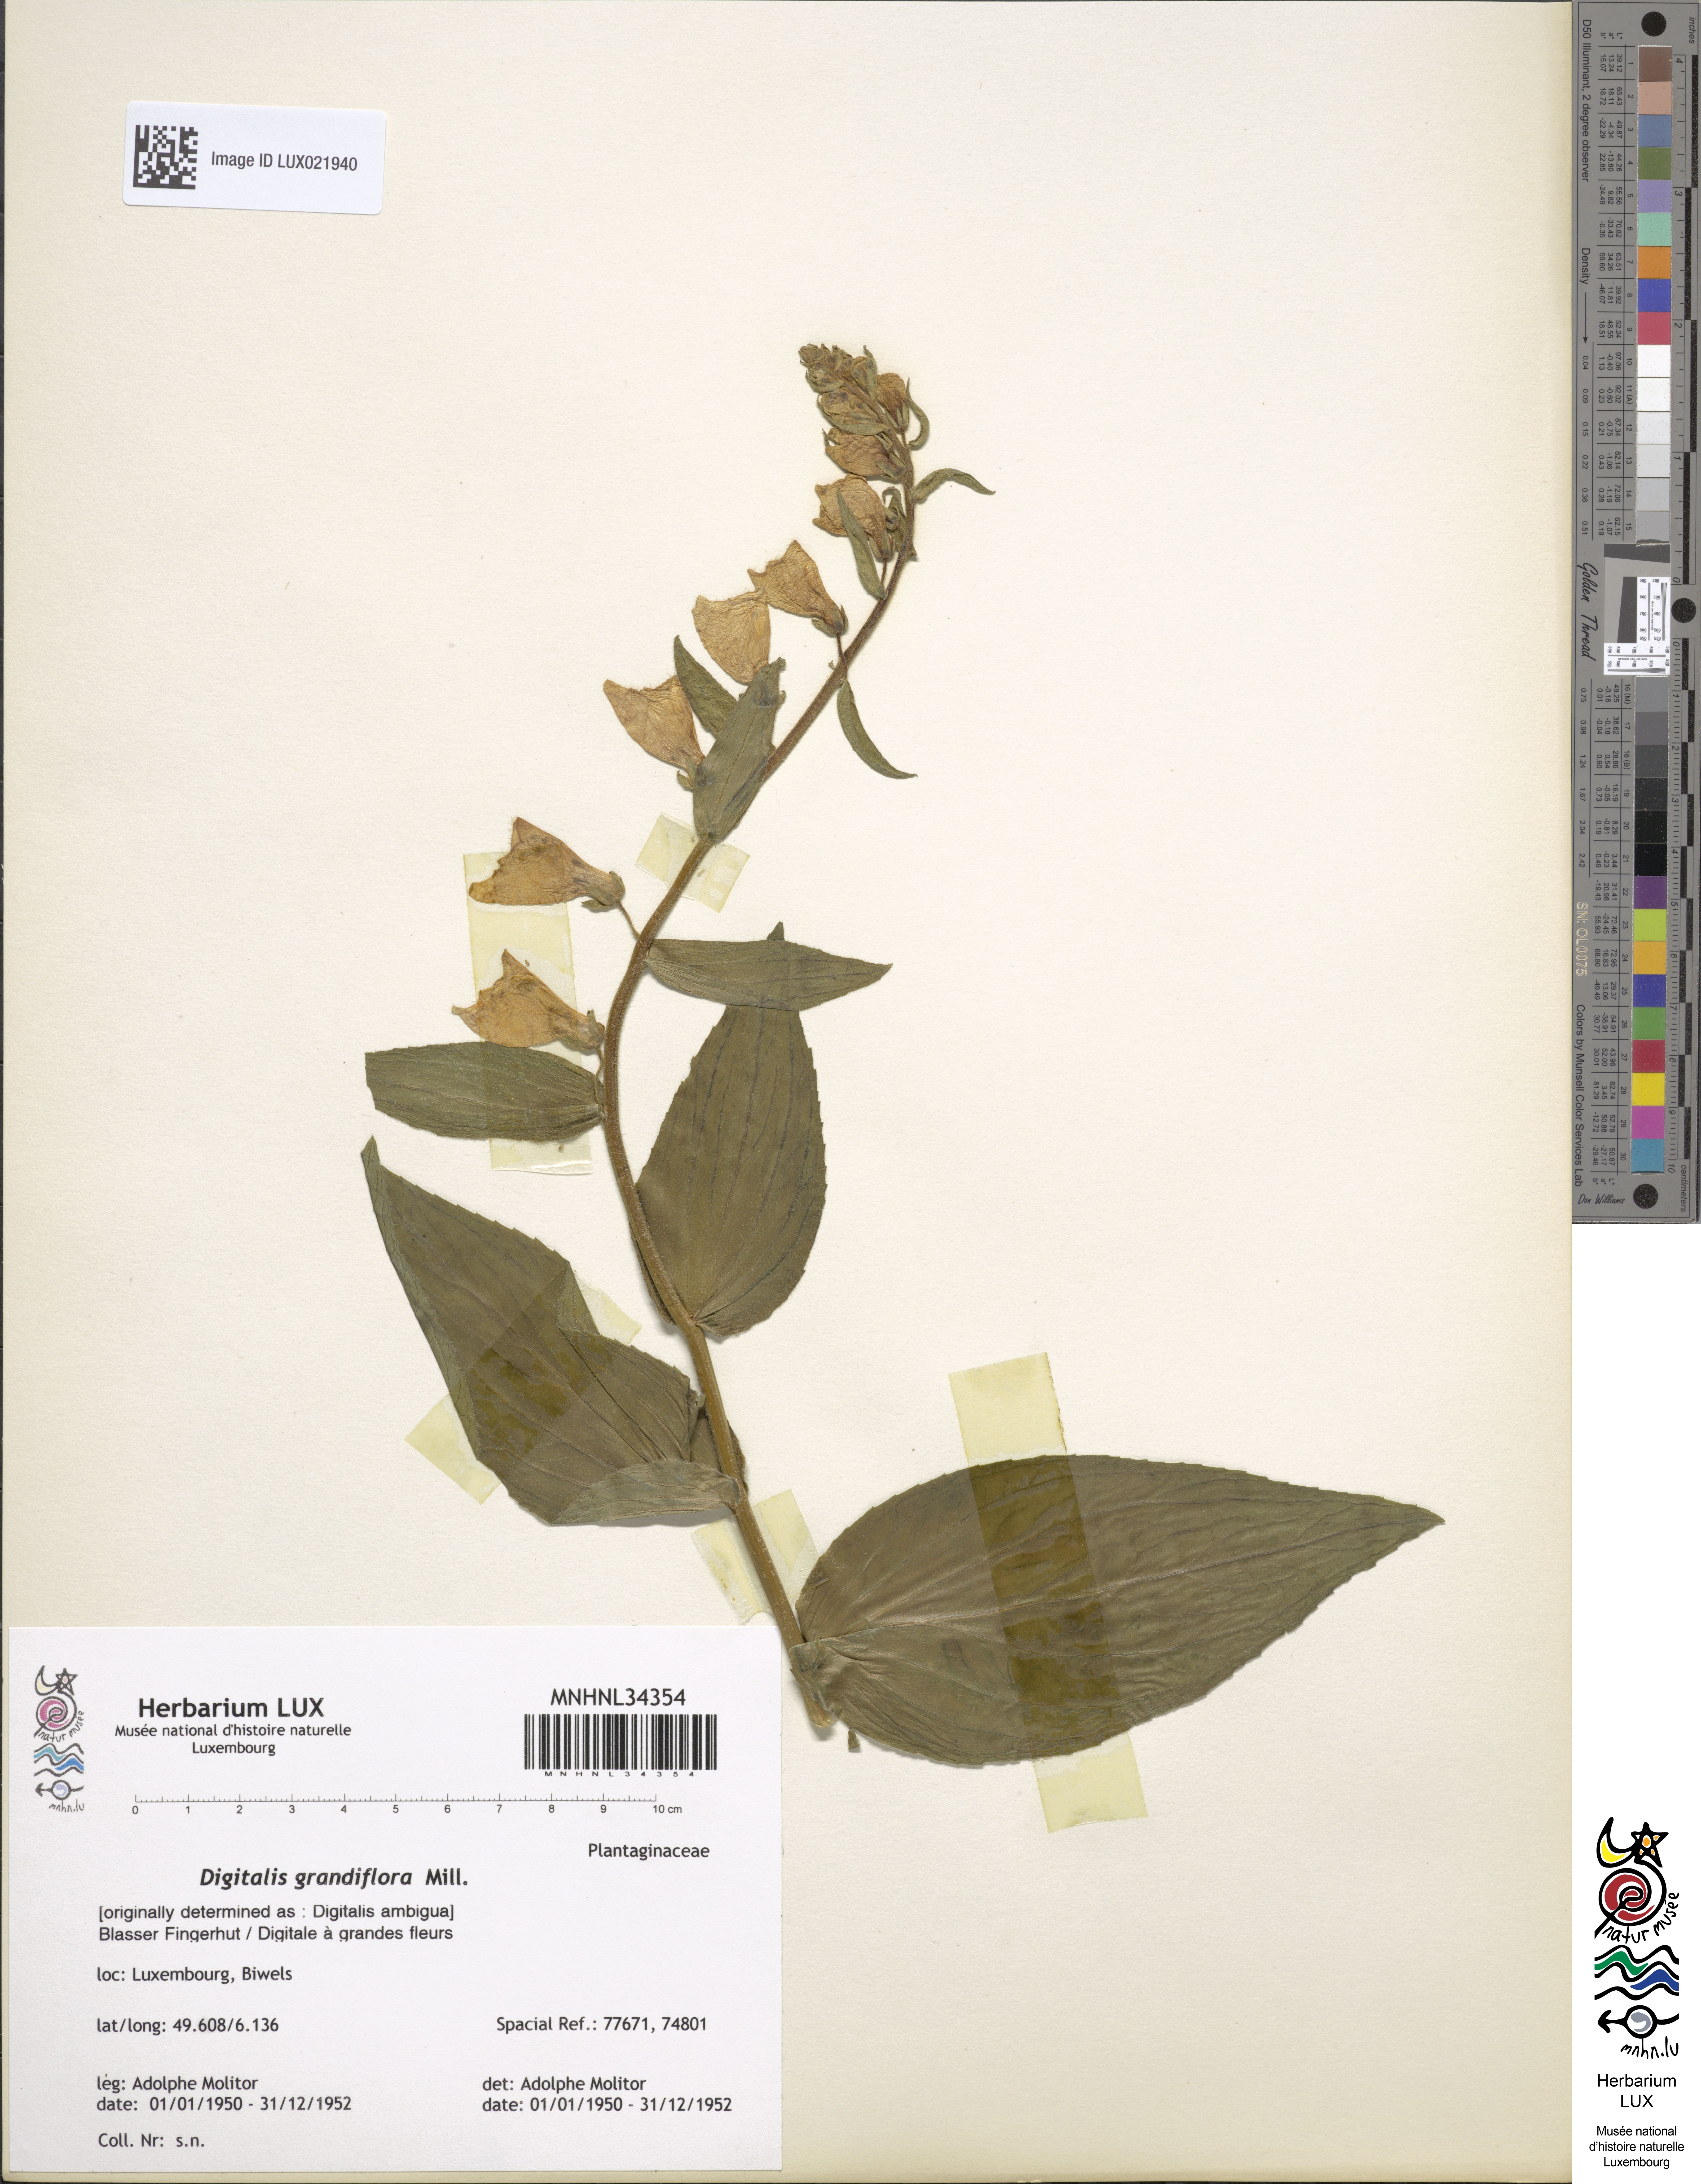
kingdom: Plantae
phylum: Tracheophyta
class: Magnoliopsida
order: Lamiales
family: Plantaginaceae
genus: Digitalis
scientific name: Digitalis grandiflora
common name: Yellow foxglove
